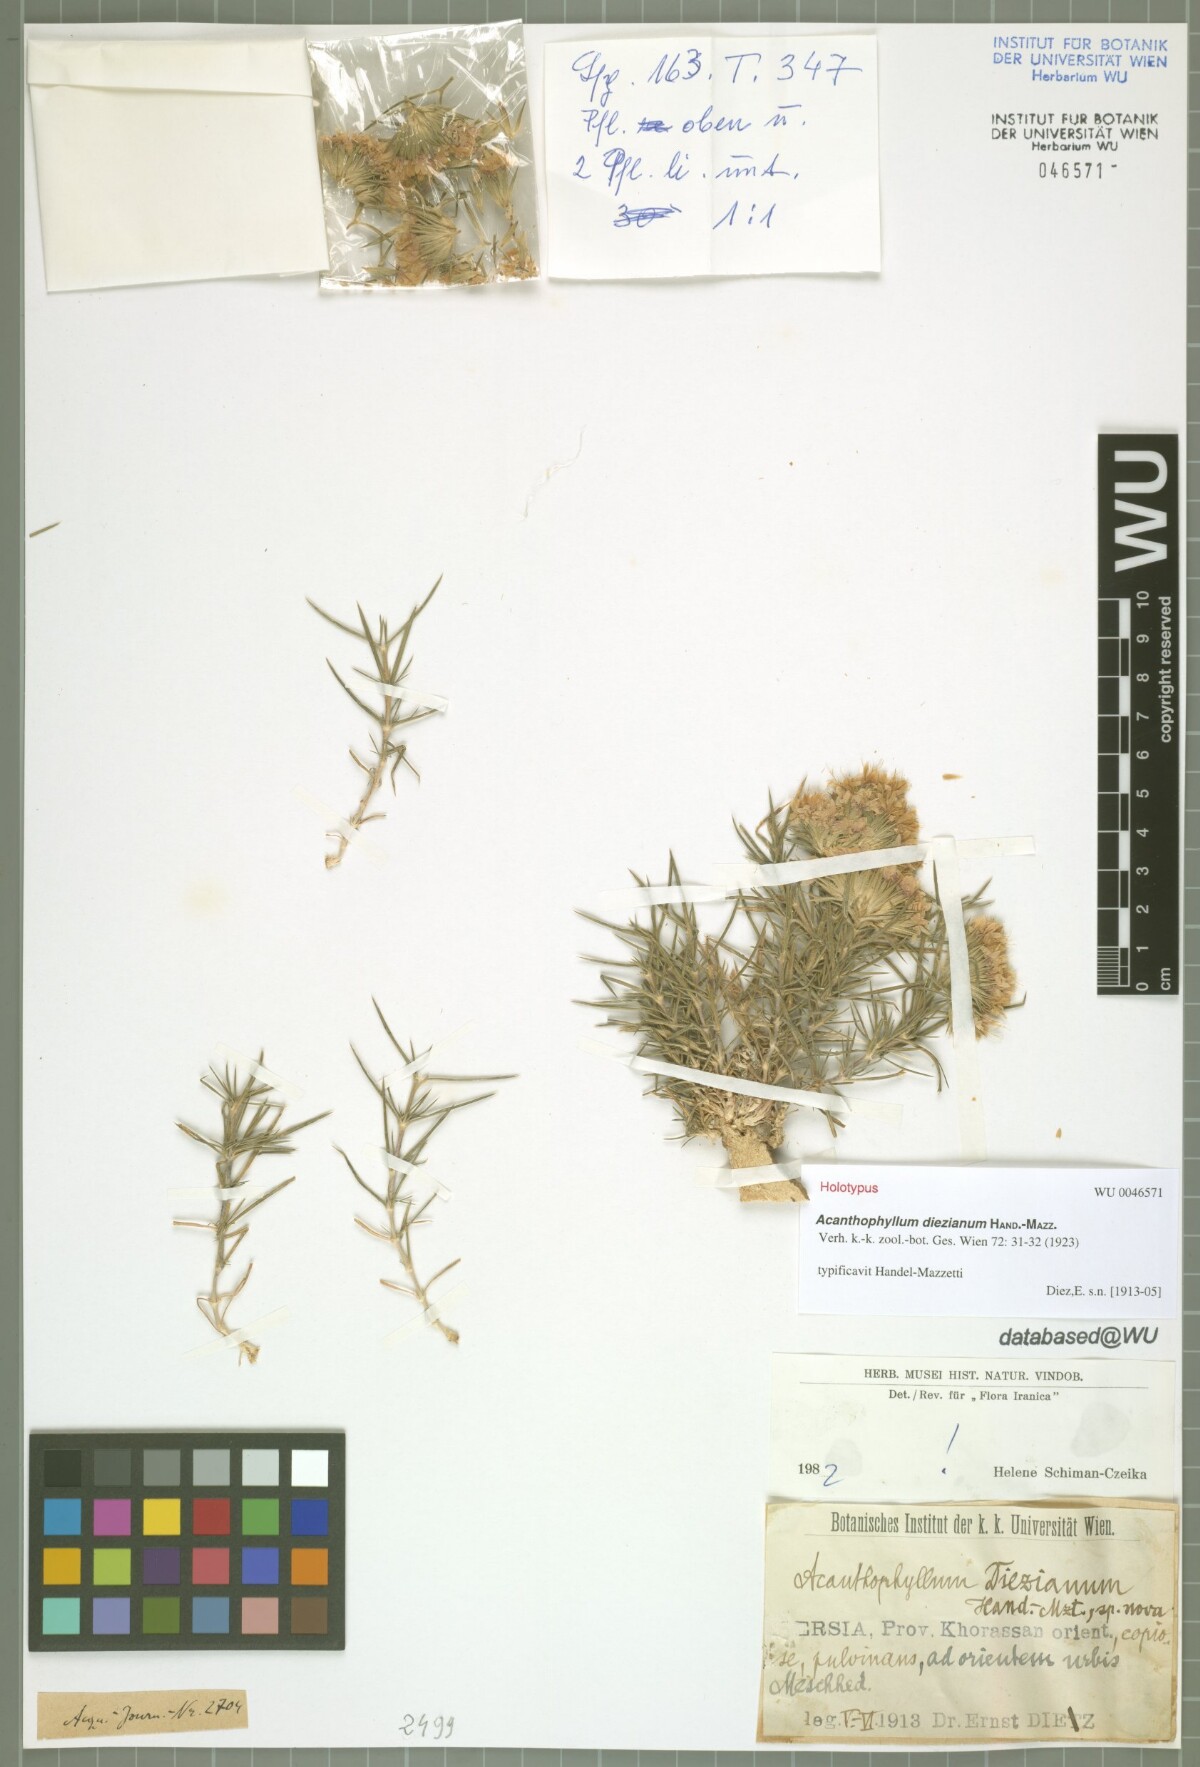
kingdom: Plantae
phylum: Tracheophyta
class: Magnoliopsida
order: Caryophyllales
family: Caryophyllaceae
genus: Acanthophyllum
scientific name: Acanthophyllum diezianum
